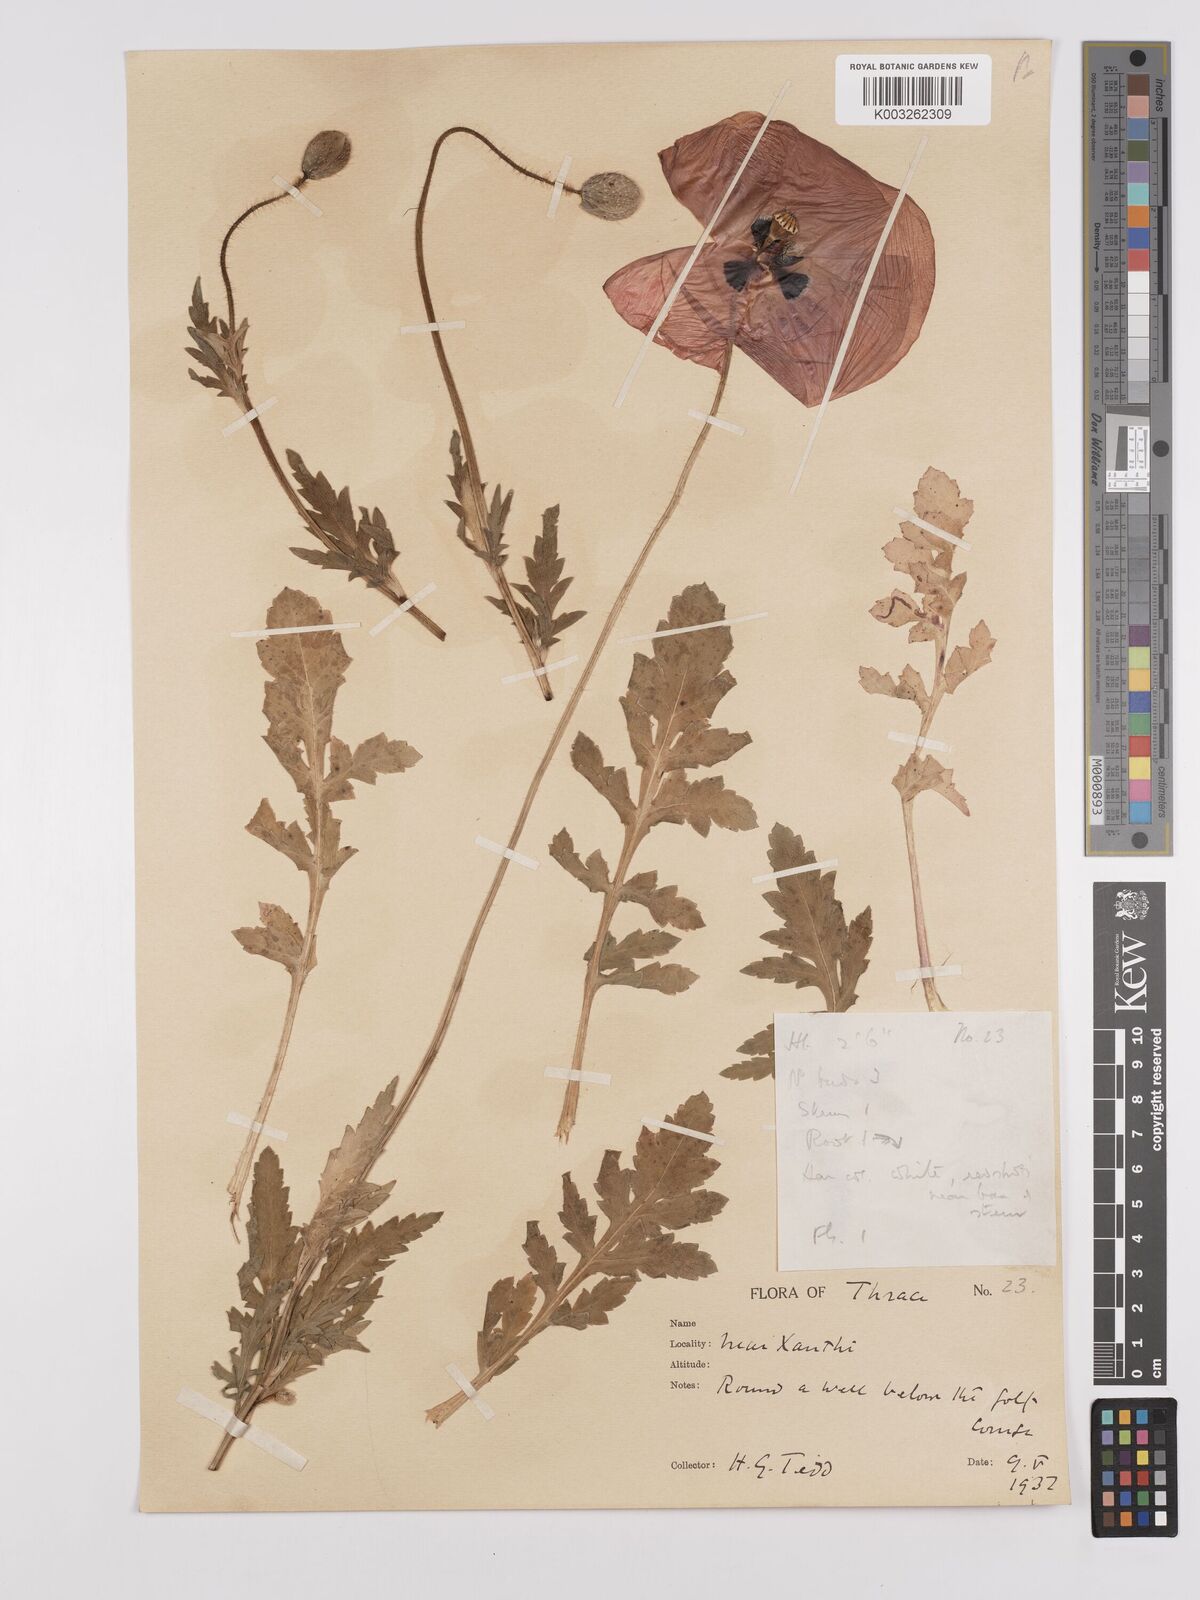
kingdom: Plantae
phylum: Tracheophyta
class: Magnoliopsida
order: Ranunculales
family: Papaveraceae
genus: Papaver
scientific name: Papaver rhoeas
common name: Corn poppy
